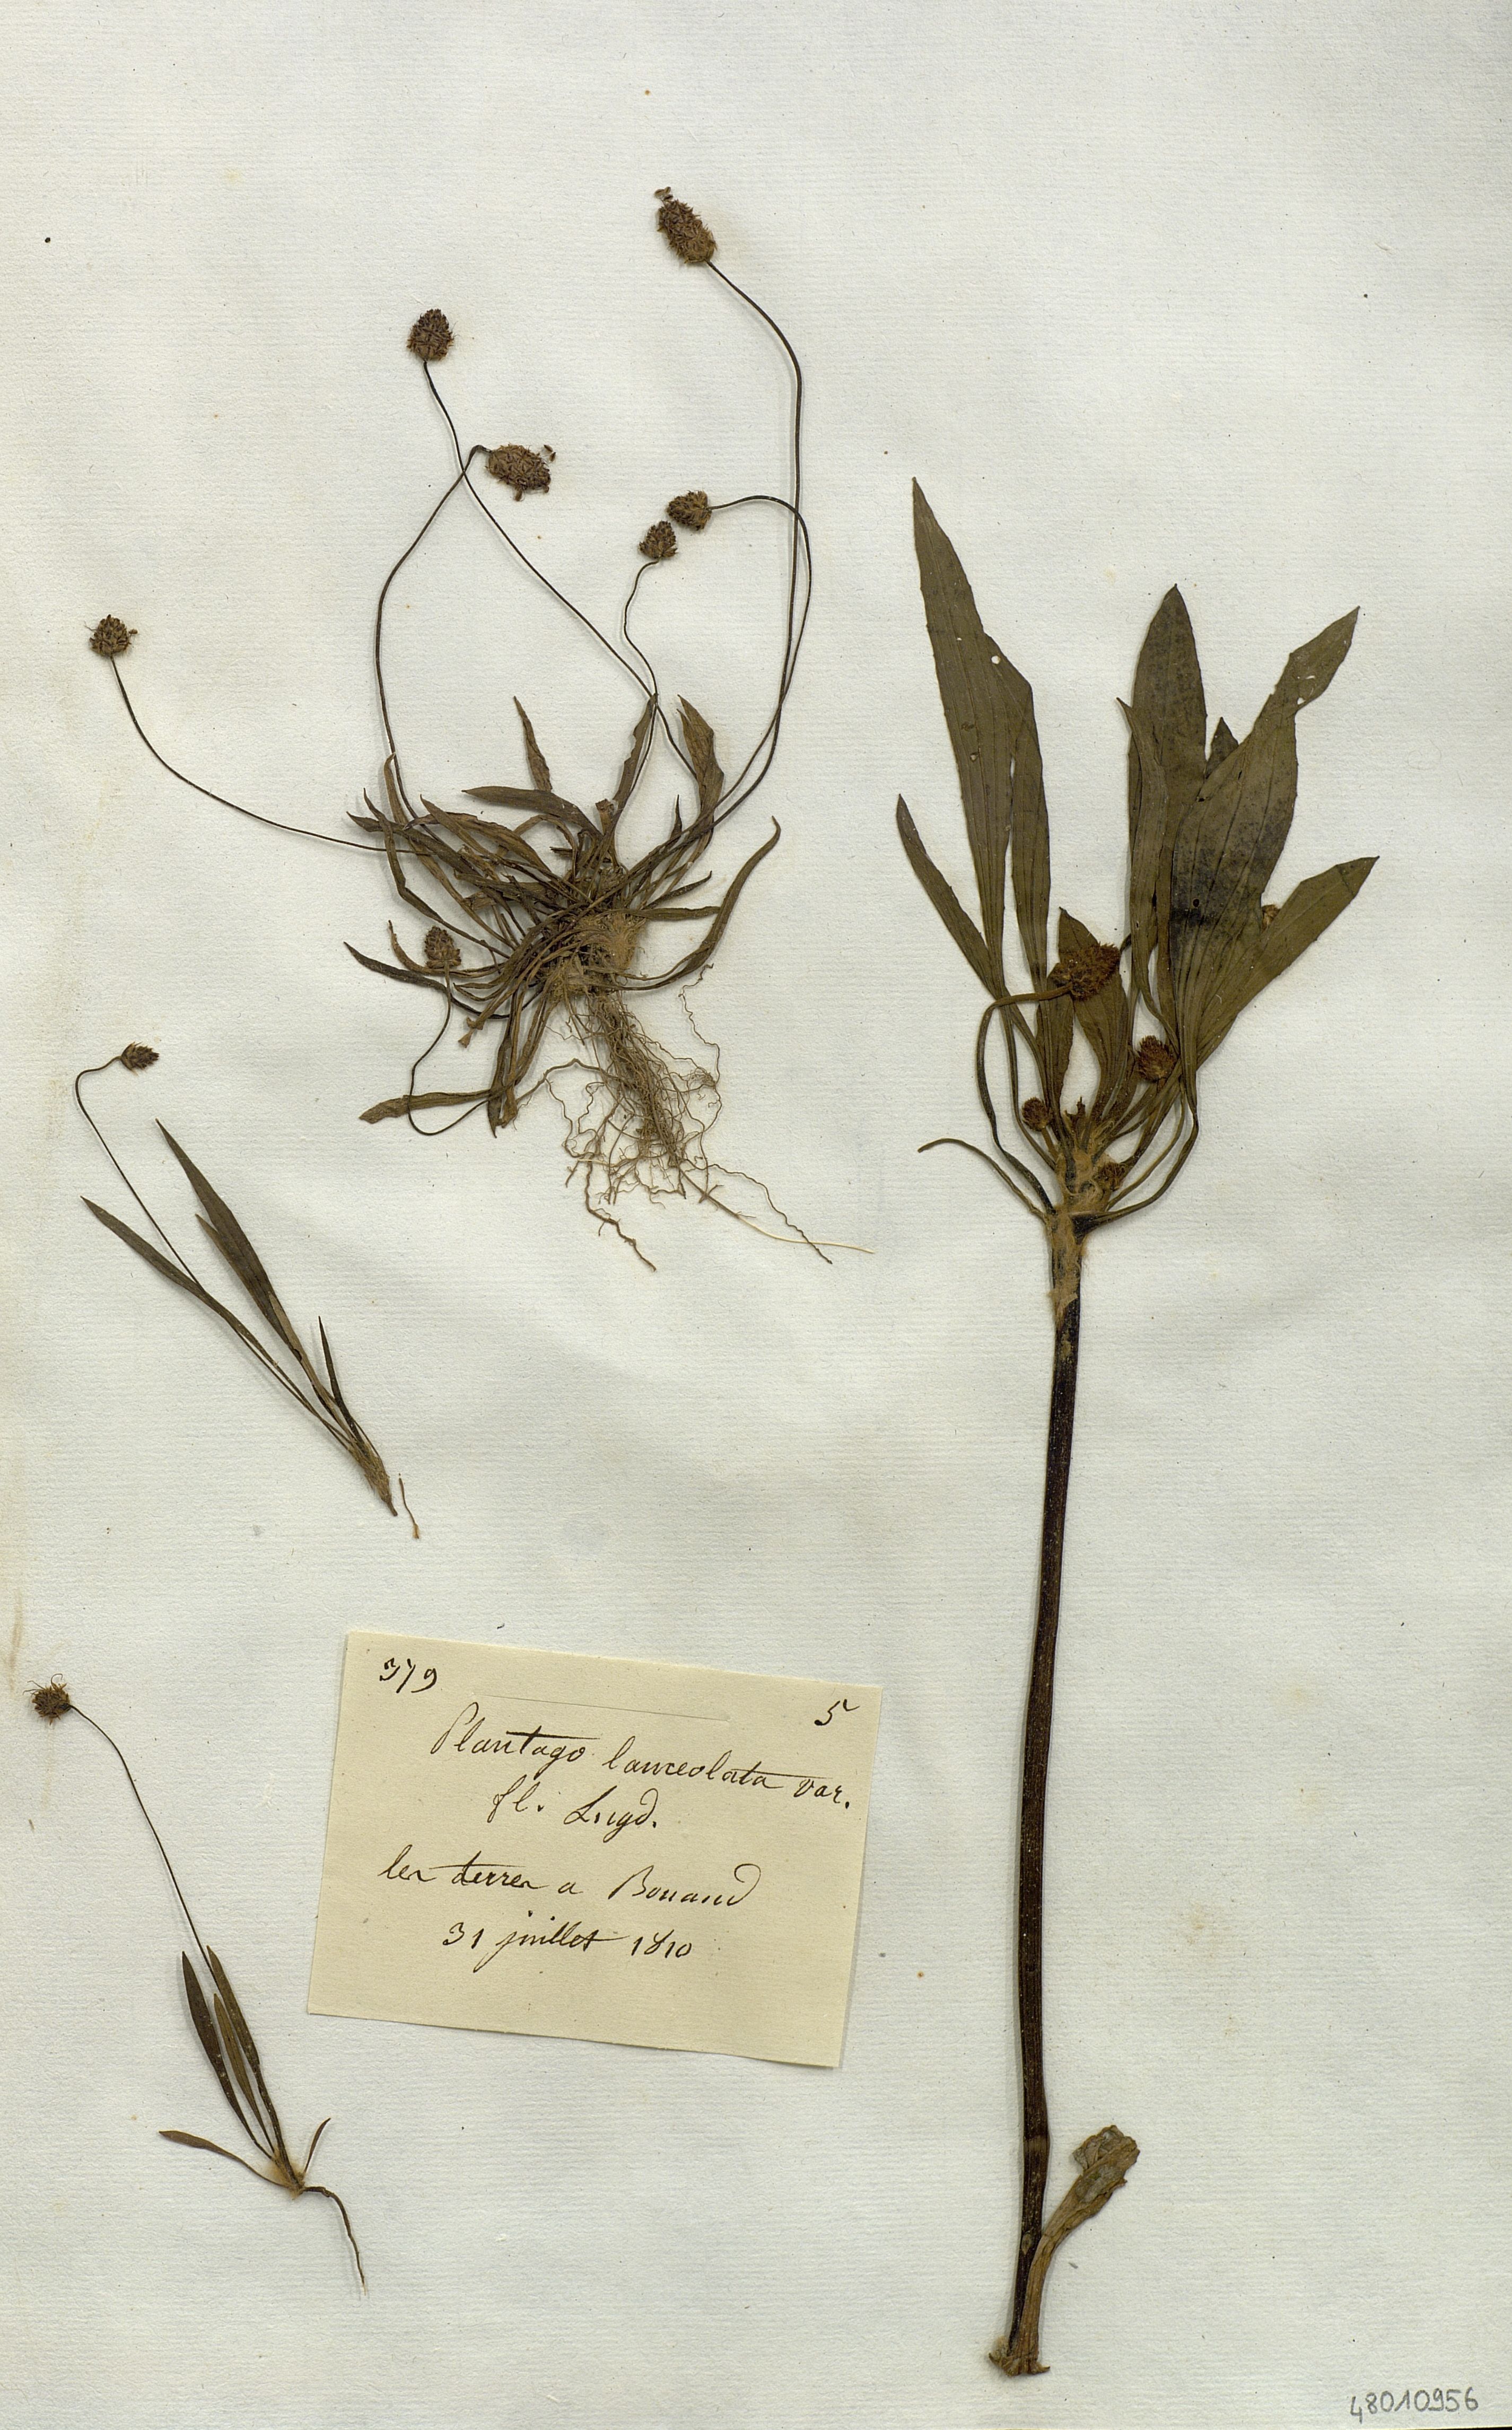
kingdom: Plantae
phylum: Tracheophyta
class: Magnoliopsida
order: Lamiales
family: Plantaginaceae
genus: Plantago
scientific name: Plantago lanceolata
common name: Ribwort plantain
